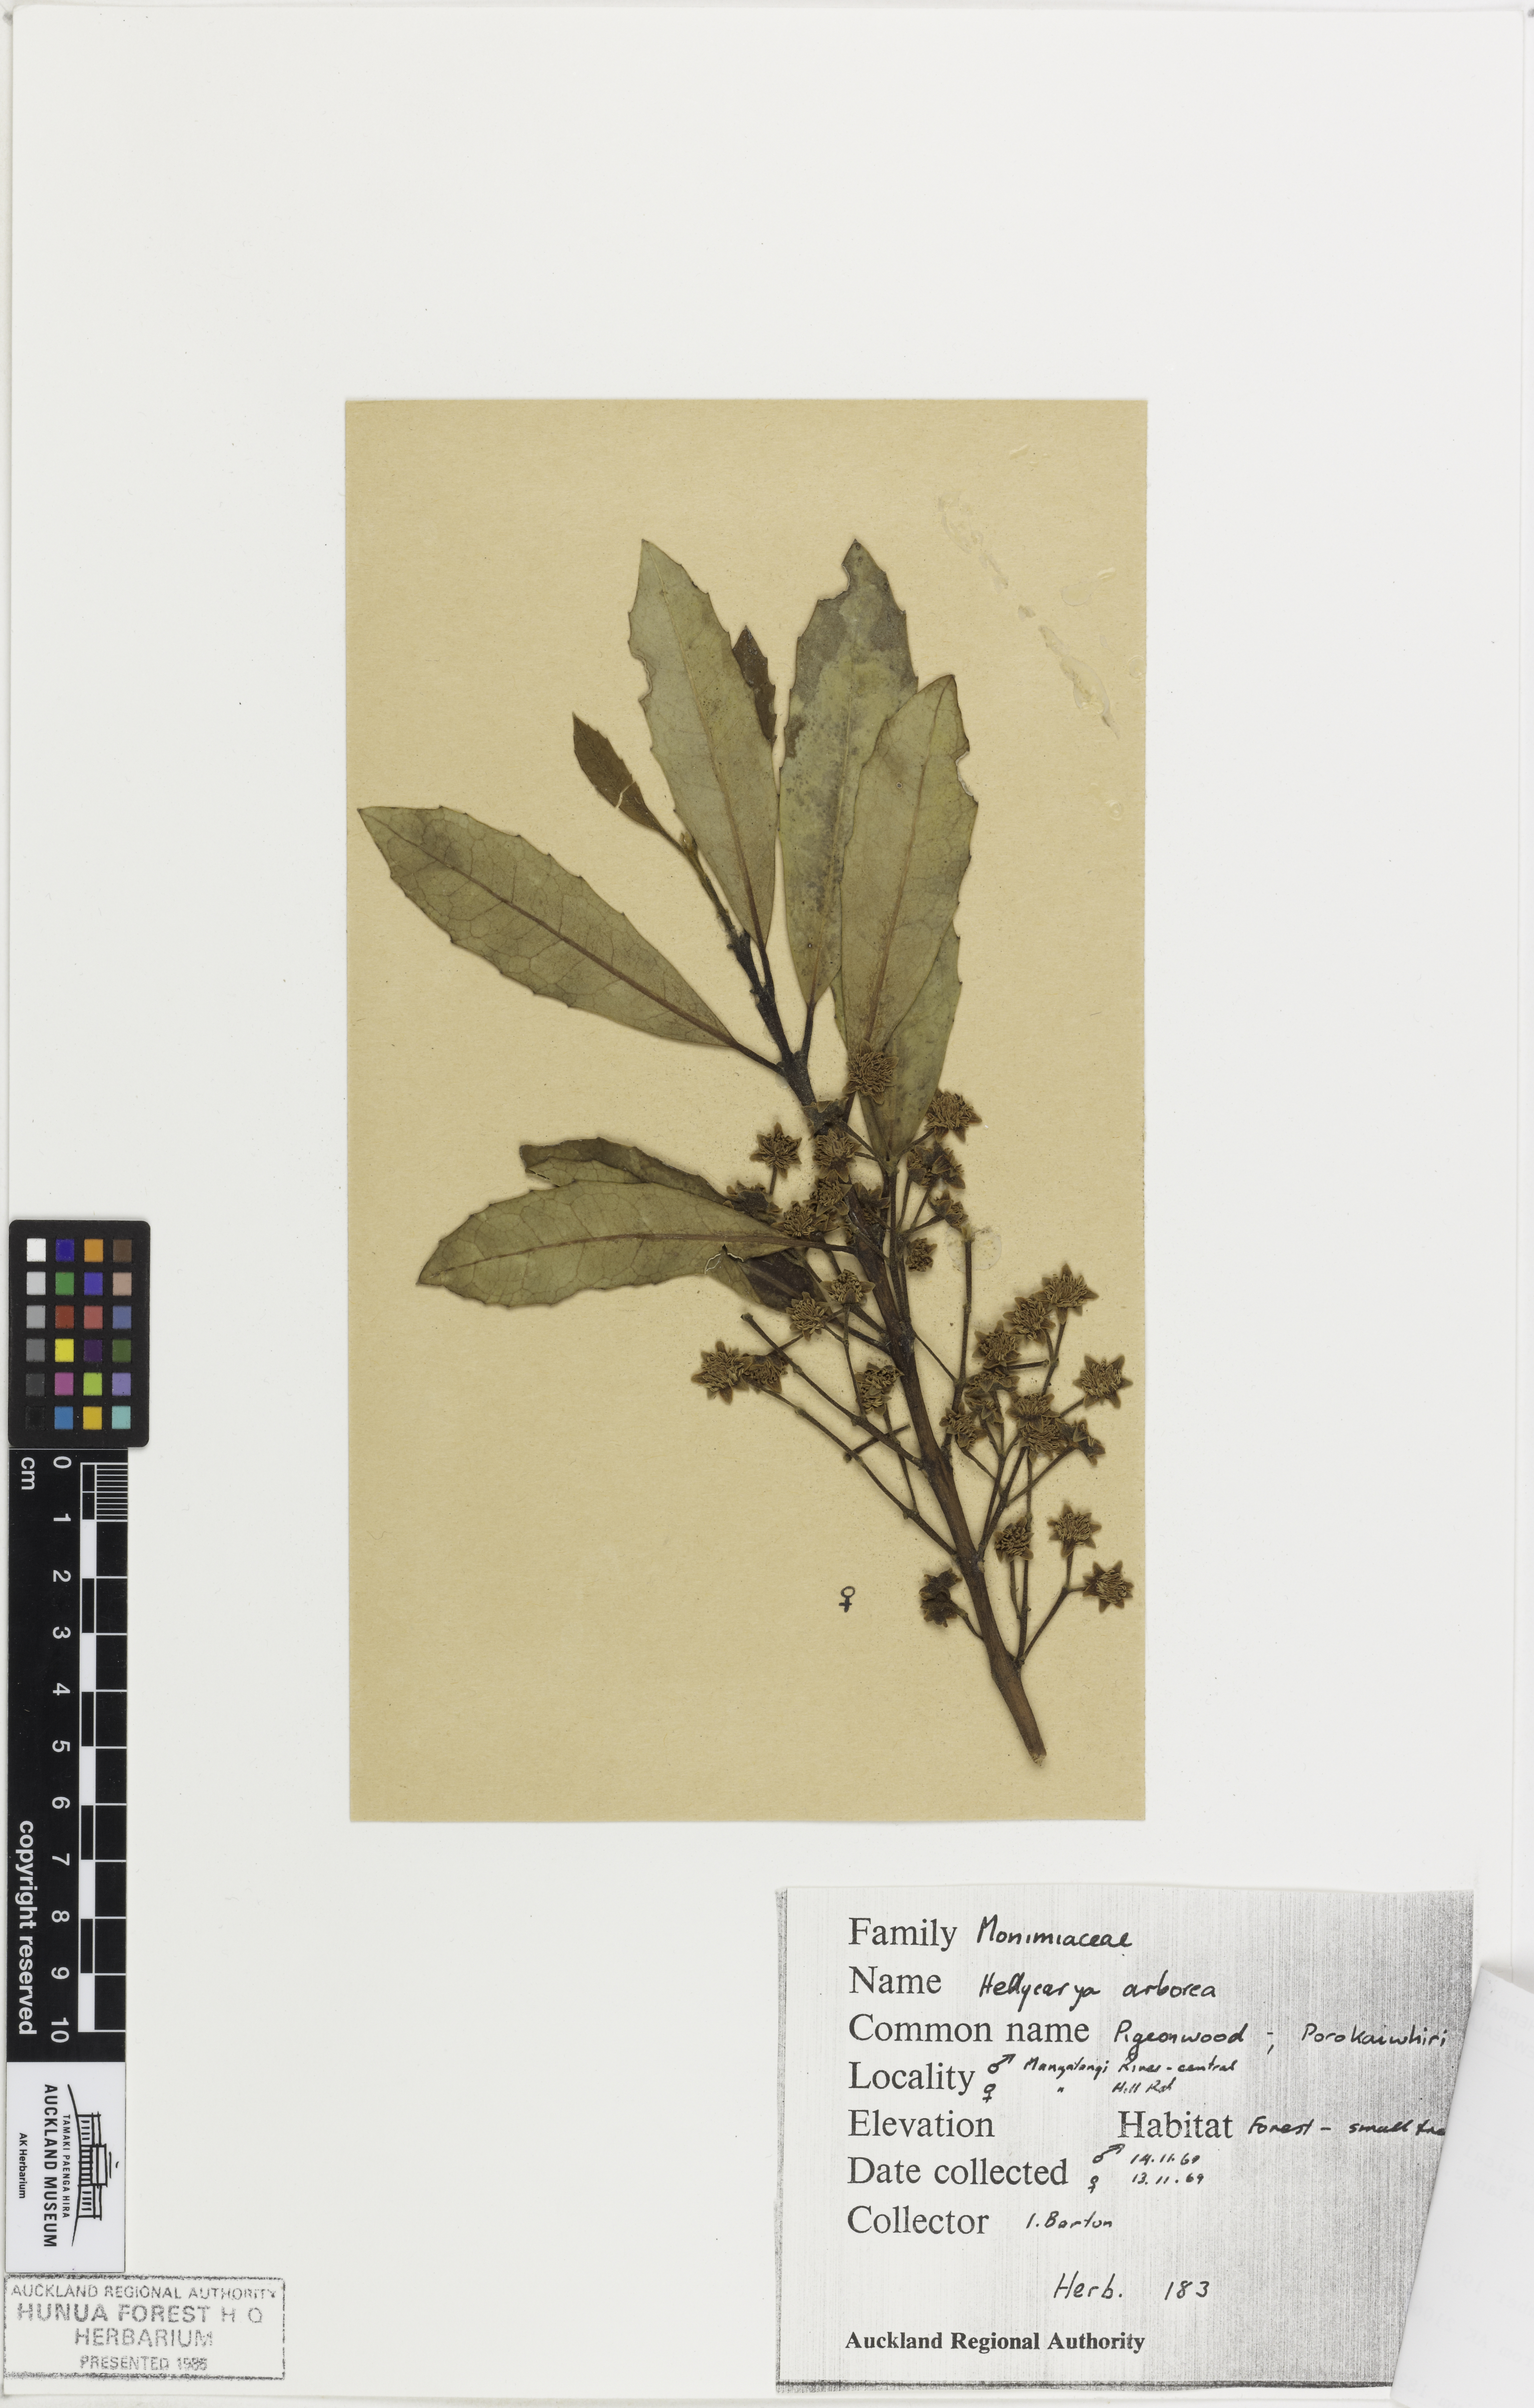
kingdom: Plantae
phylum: Tracheophyta
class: Magnoliopsida
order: Laurales
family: Monimiaceae
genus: Hedycarya
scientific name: Hedycarya arborea
